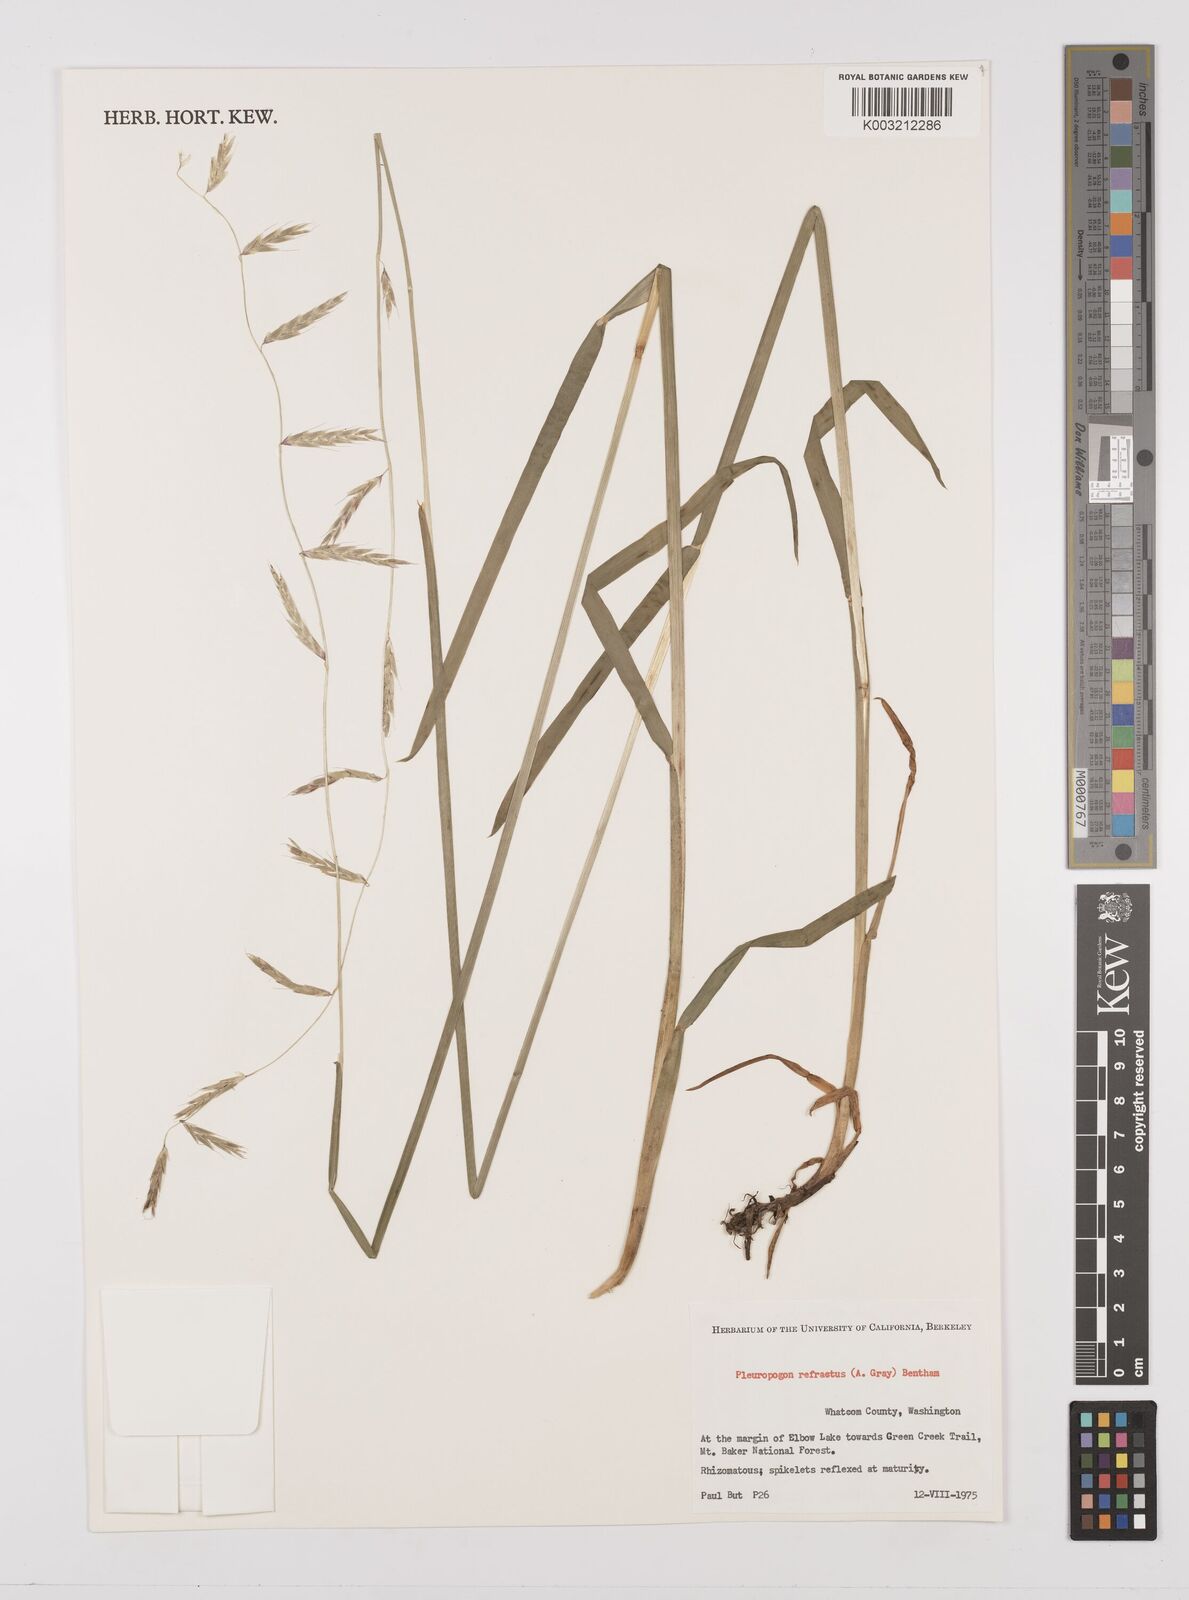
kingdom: Plantae
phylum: Tracheophyta
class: Liliopsida
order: Poales
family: Poaceae
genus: Pleuropogon
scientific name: Pleuropogon refractus
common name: Nodding false semaphoregrass
